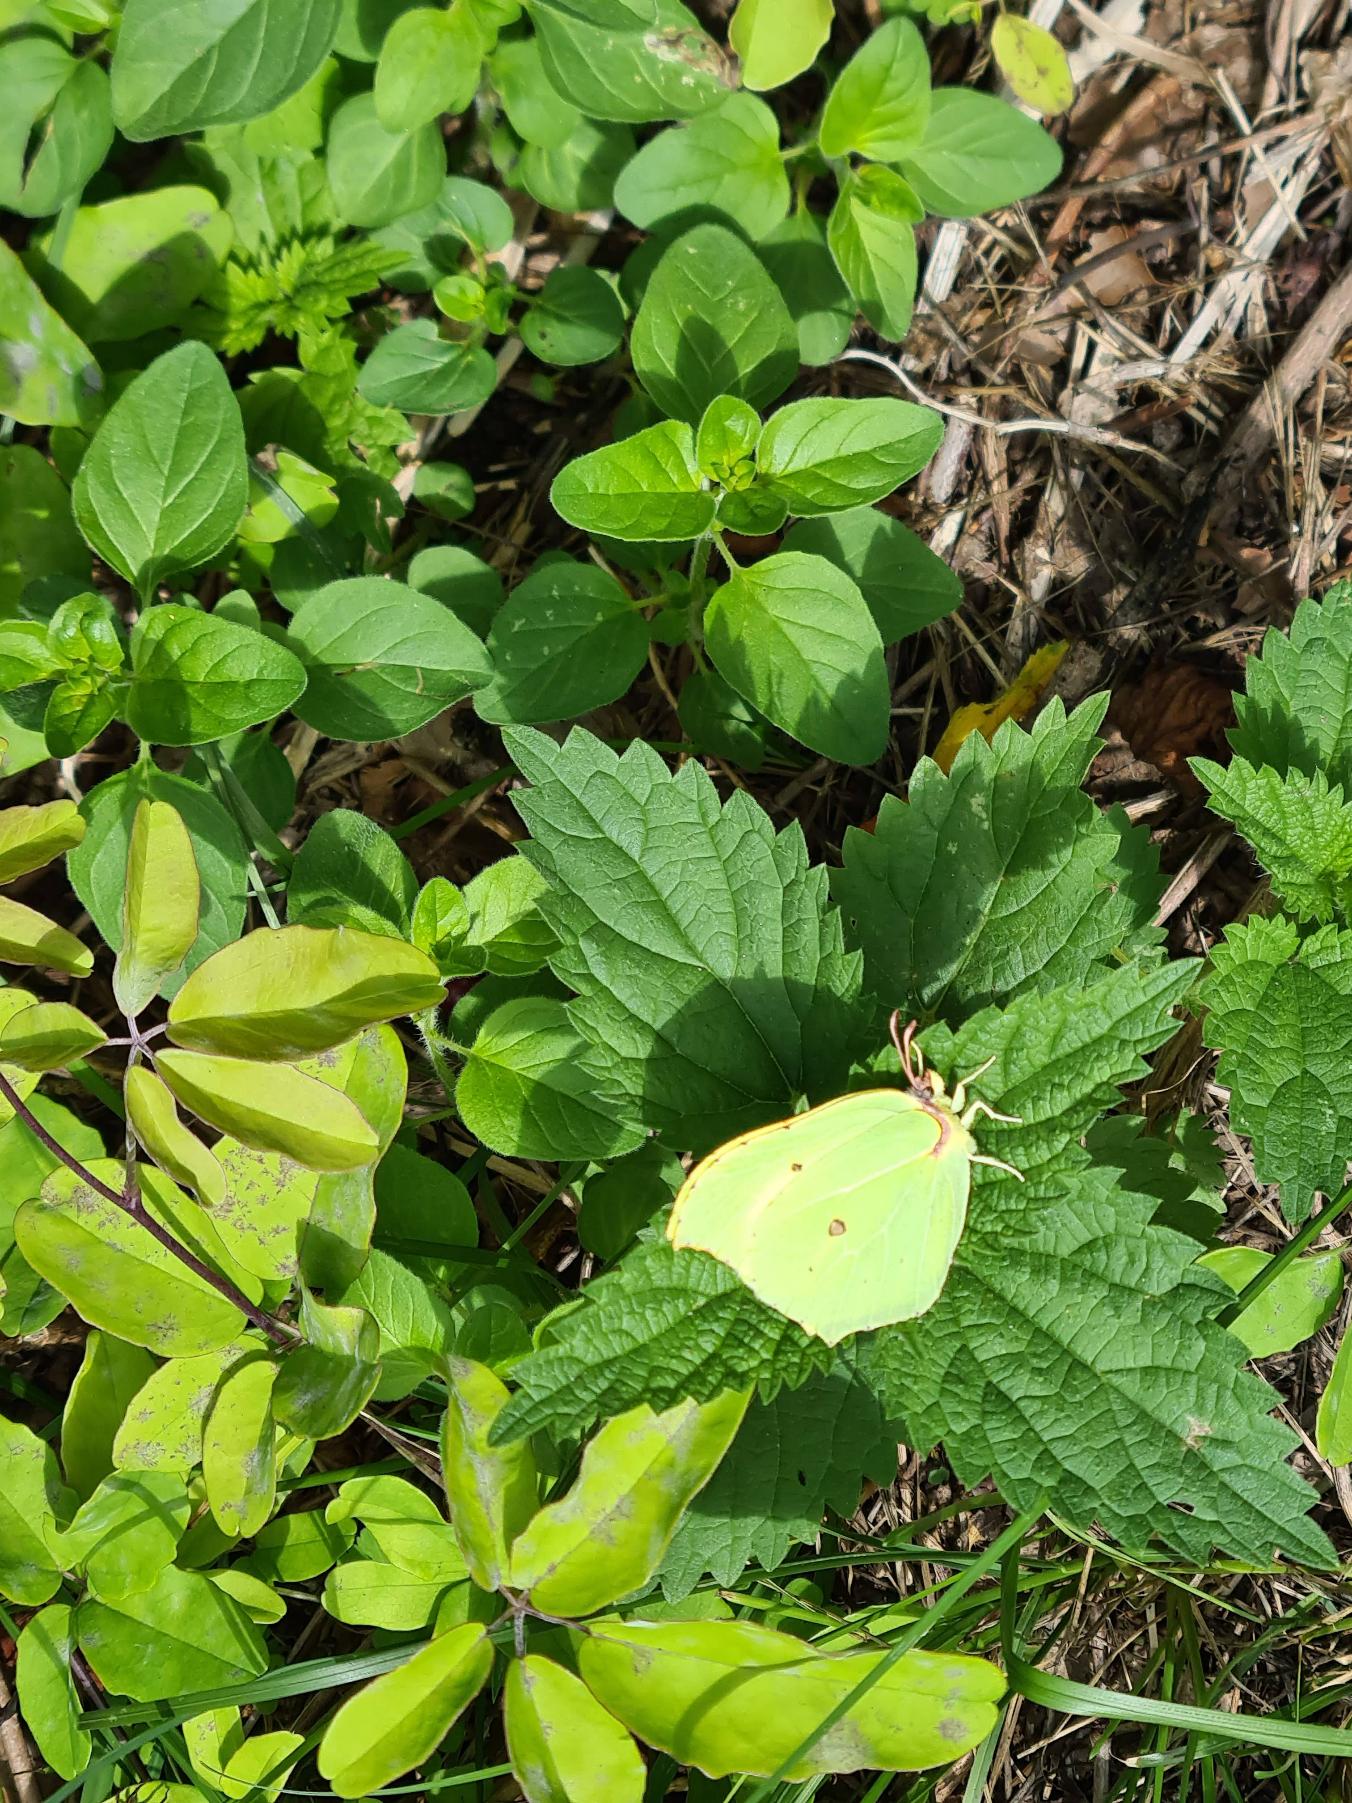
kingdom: Animalia
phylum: Arthropoda
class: Insecta
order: Lepidoptera
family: Pieridae
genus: Gonepteryx
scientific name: Gonepteryx rhamni
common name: Citronsommerfugl
